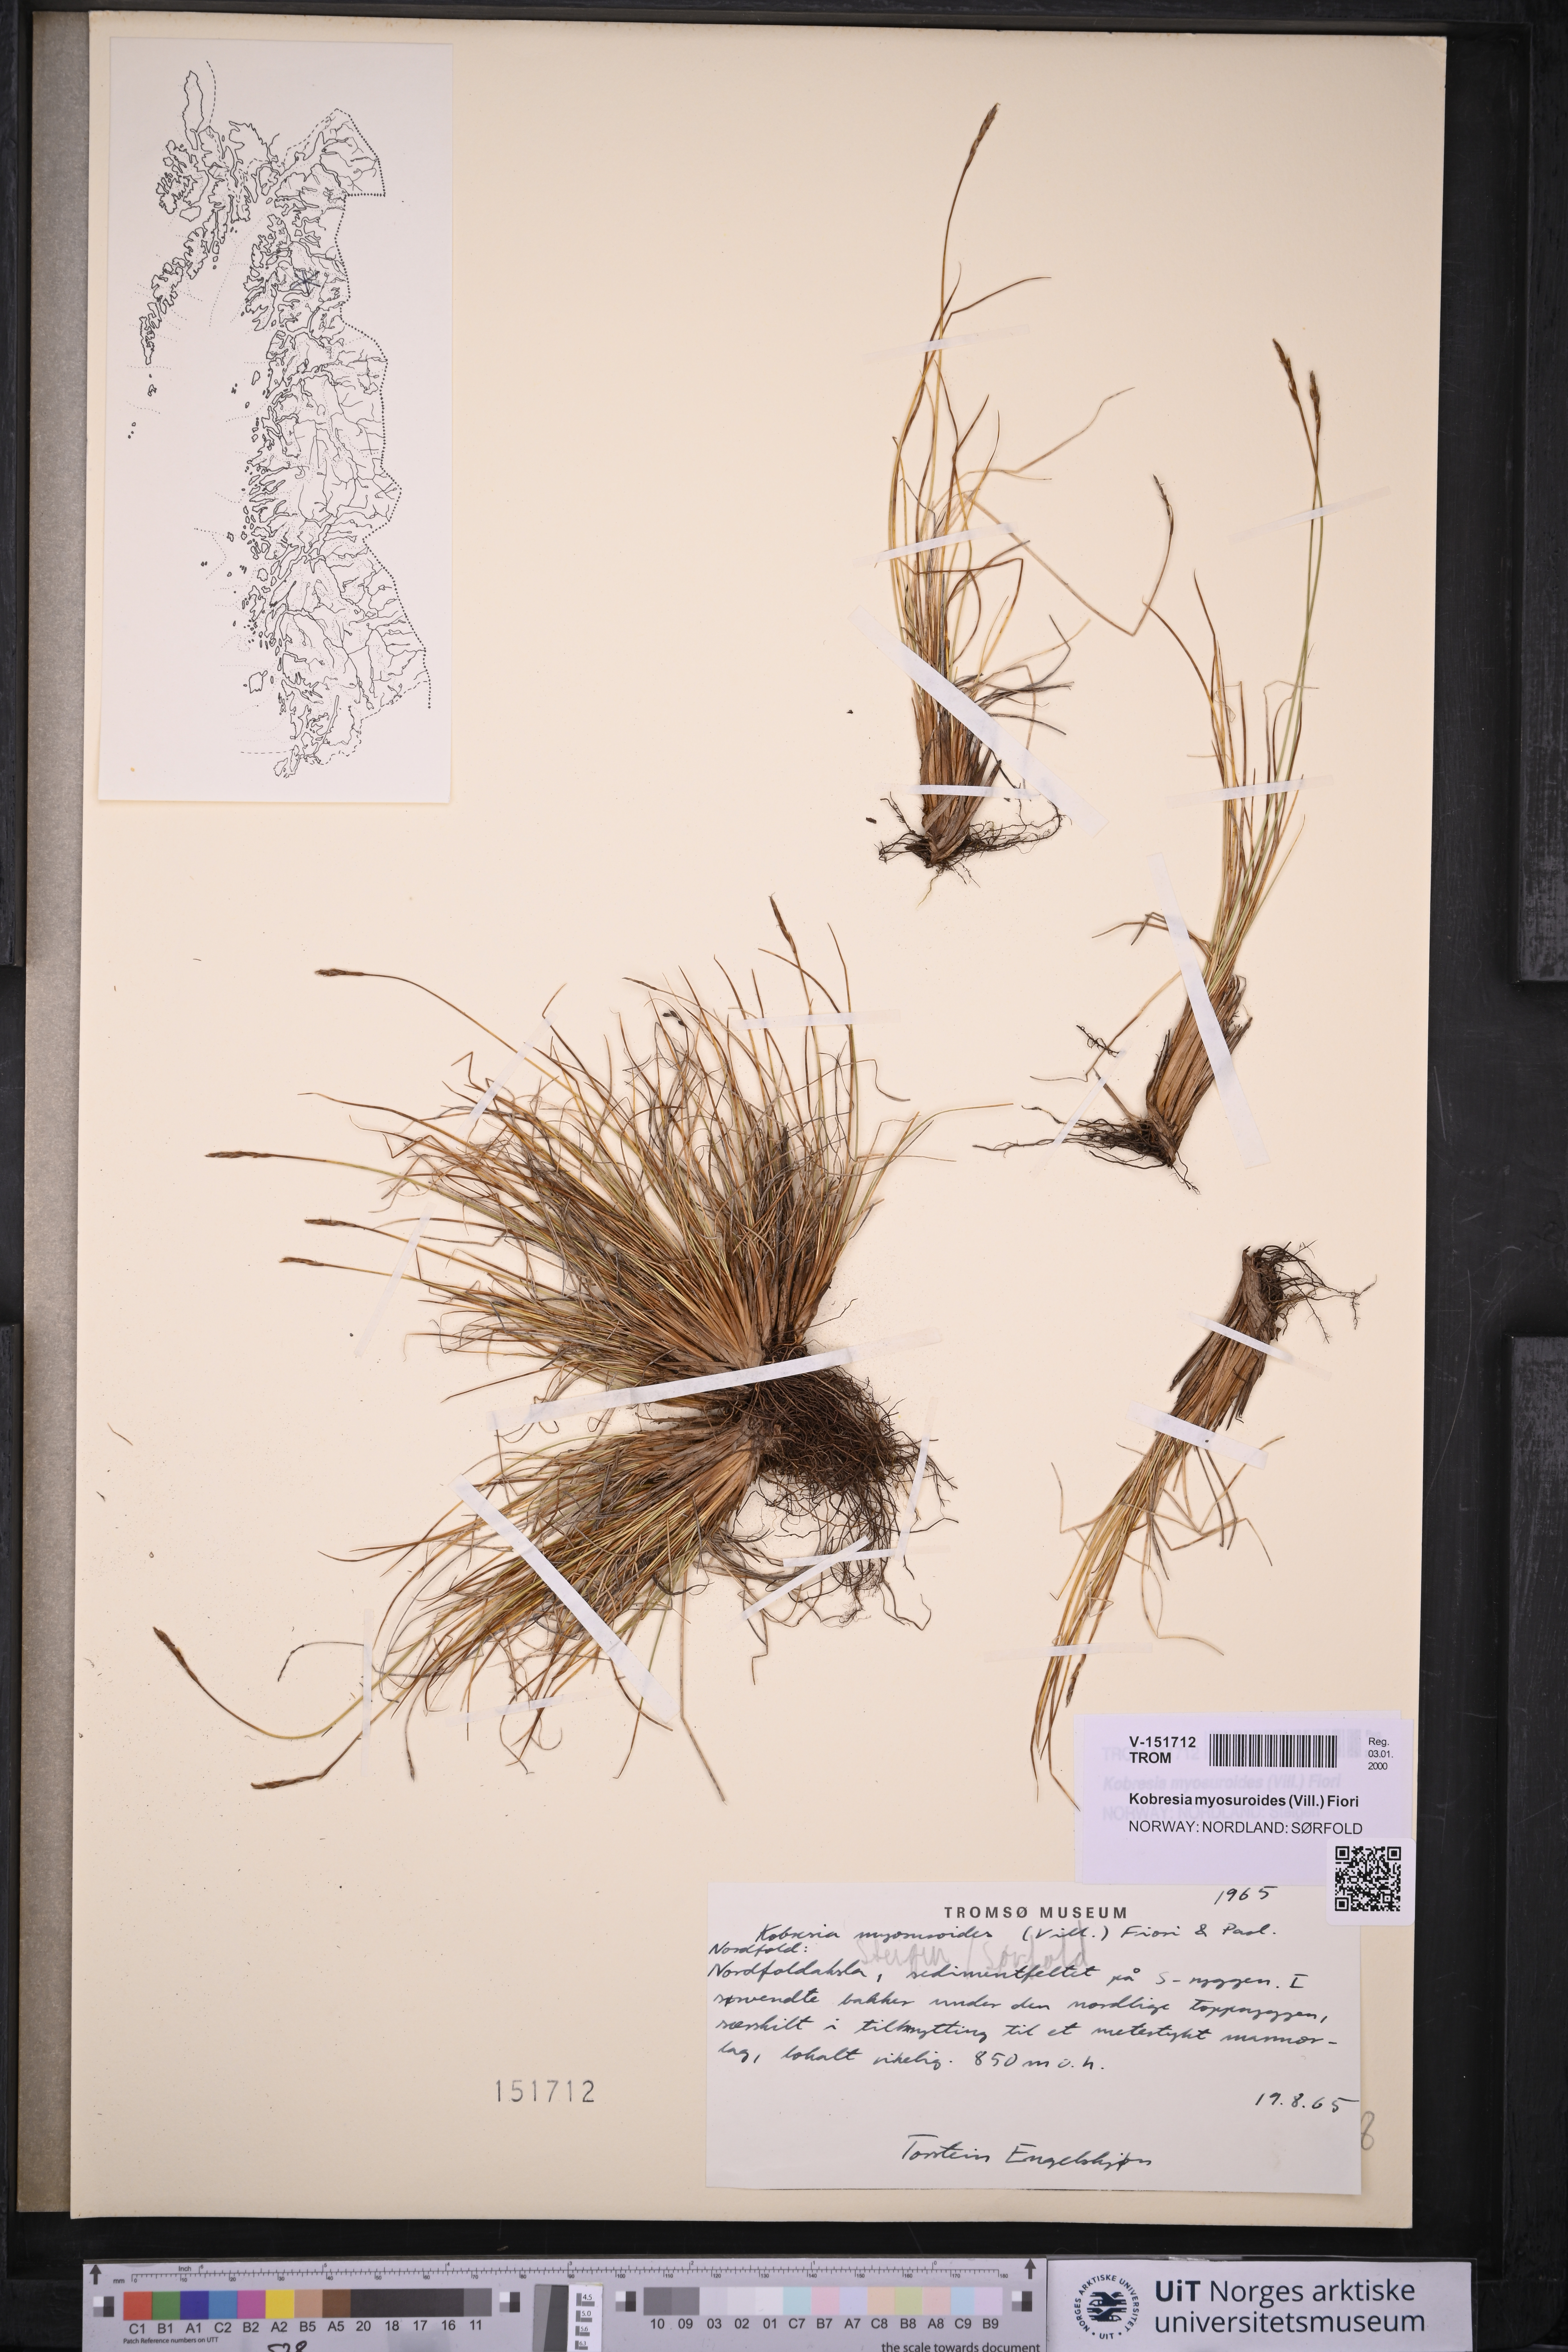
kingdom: Plantae
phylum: Tracheophyta
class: Liliopsida
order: Poales
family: Cyperaceae
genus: Carex
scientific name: Carex myosuroides
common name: Bellard's bog sedge
